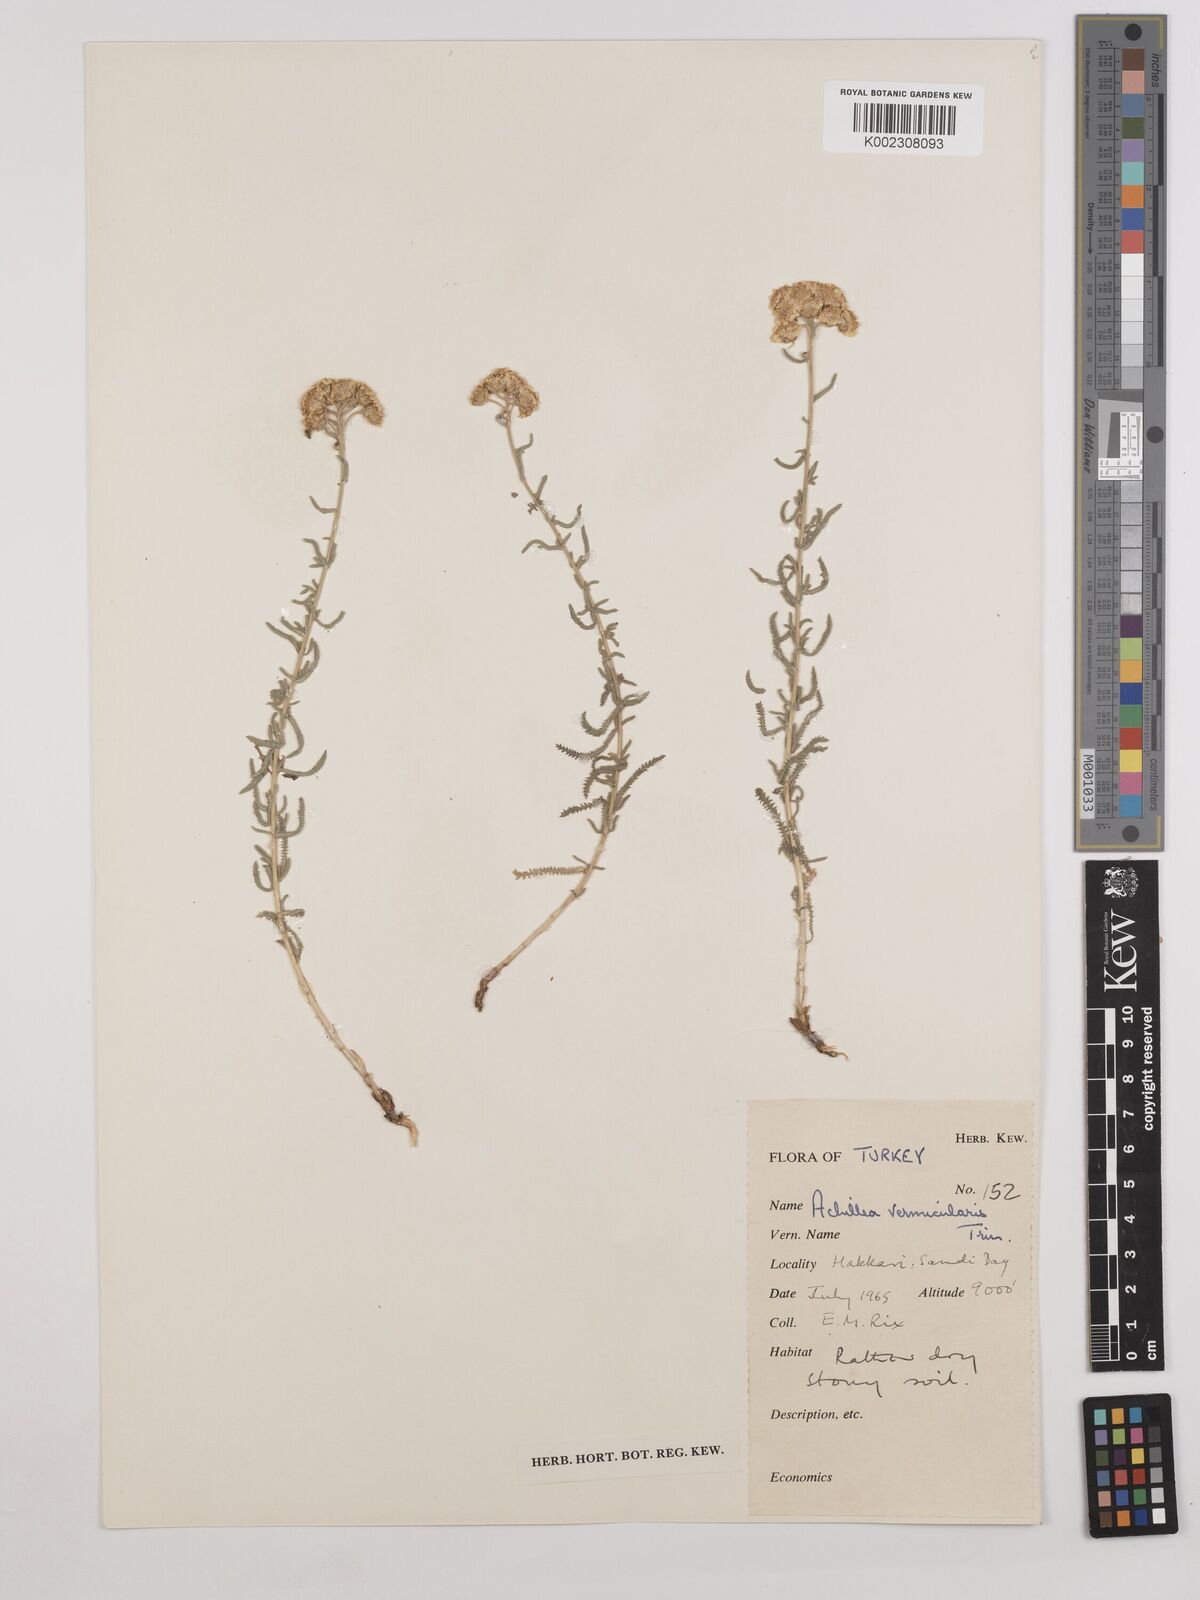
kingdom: Plantae
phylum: Tracheophyta
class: Magnoliopsida
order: Asterales
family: Asteraceae
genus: Achillea
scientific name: Achillea vermicularis
